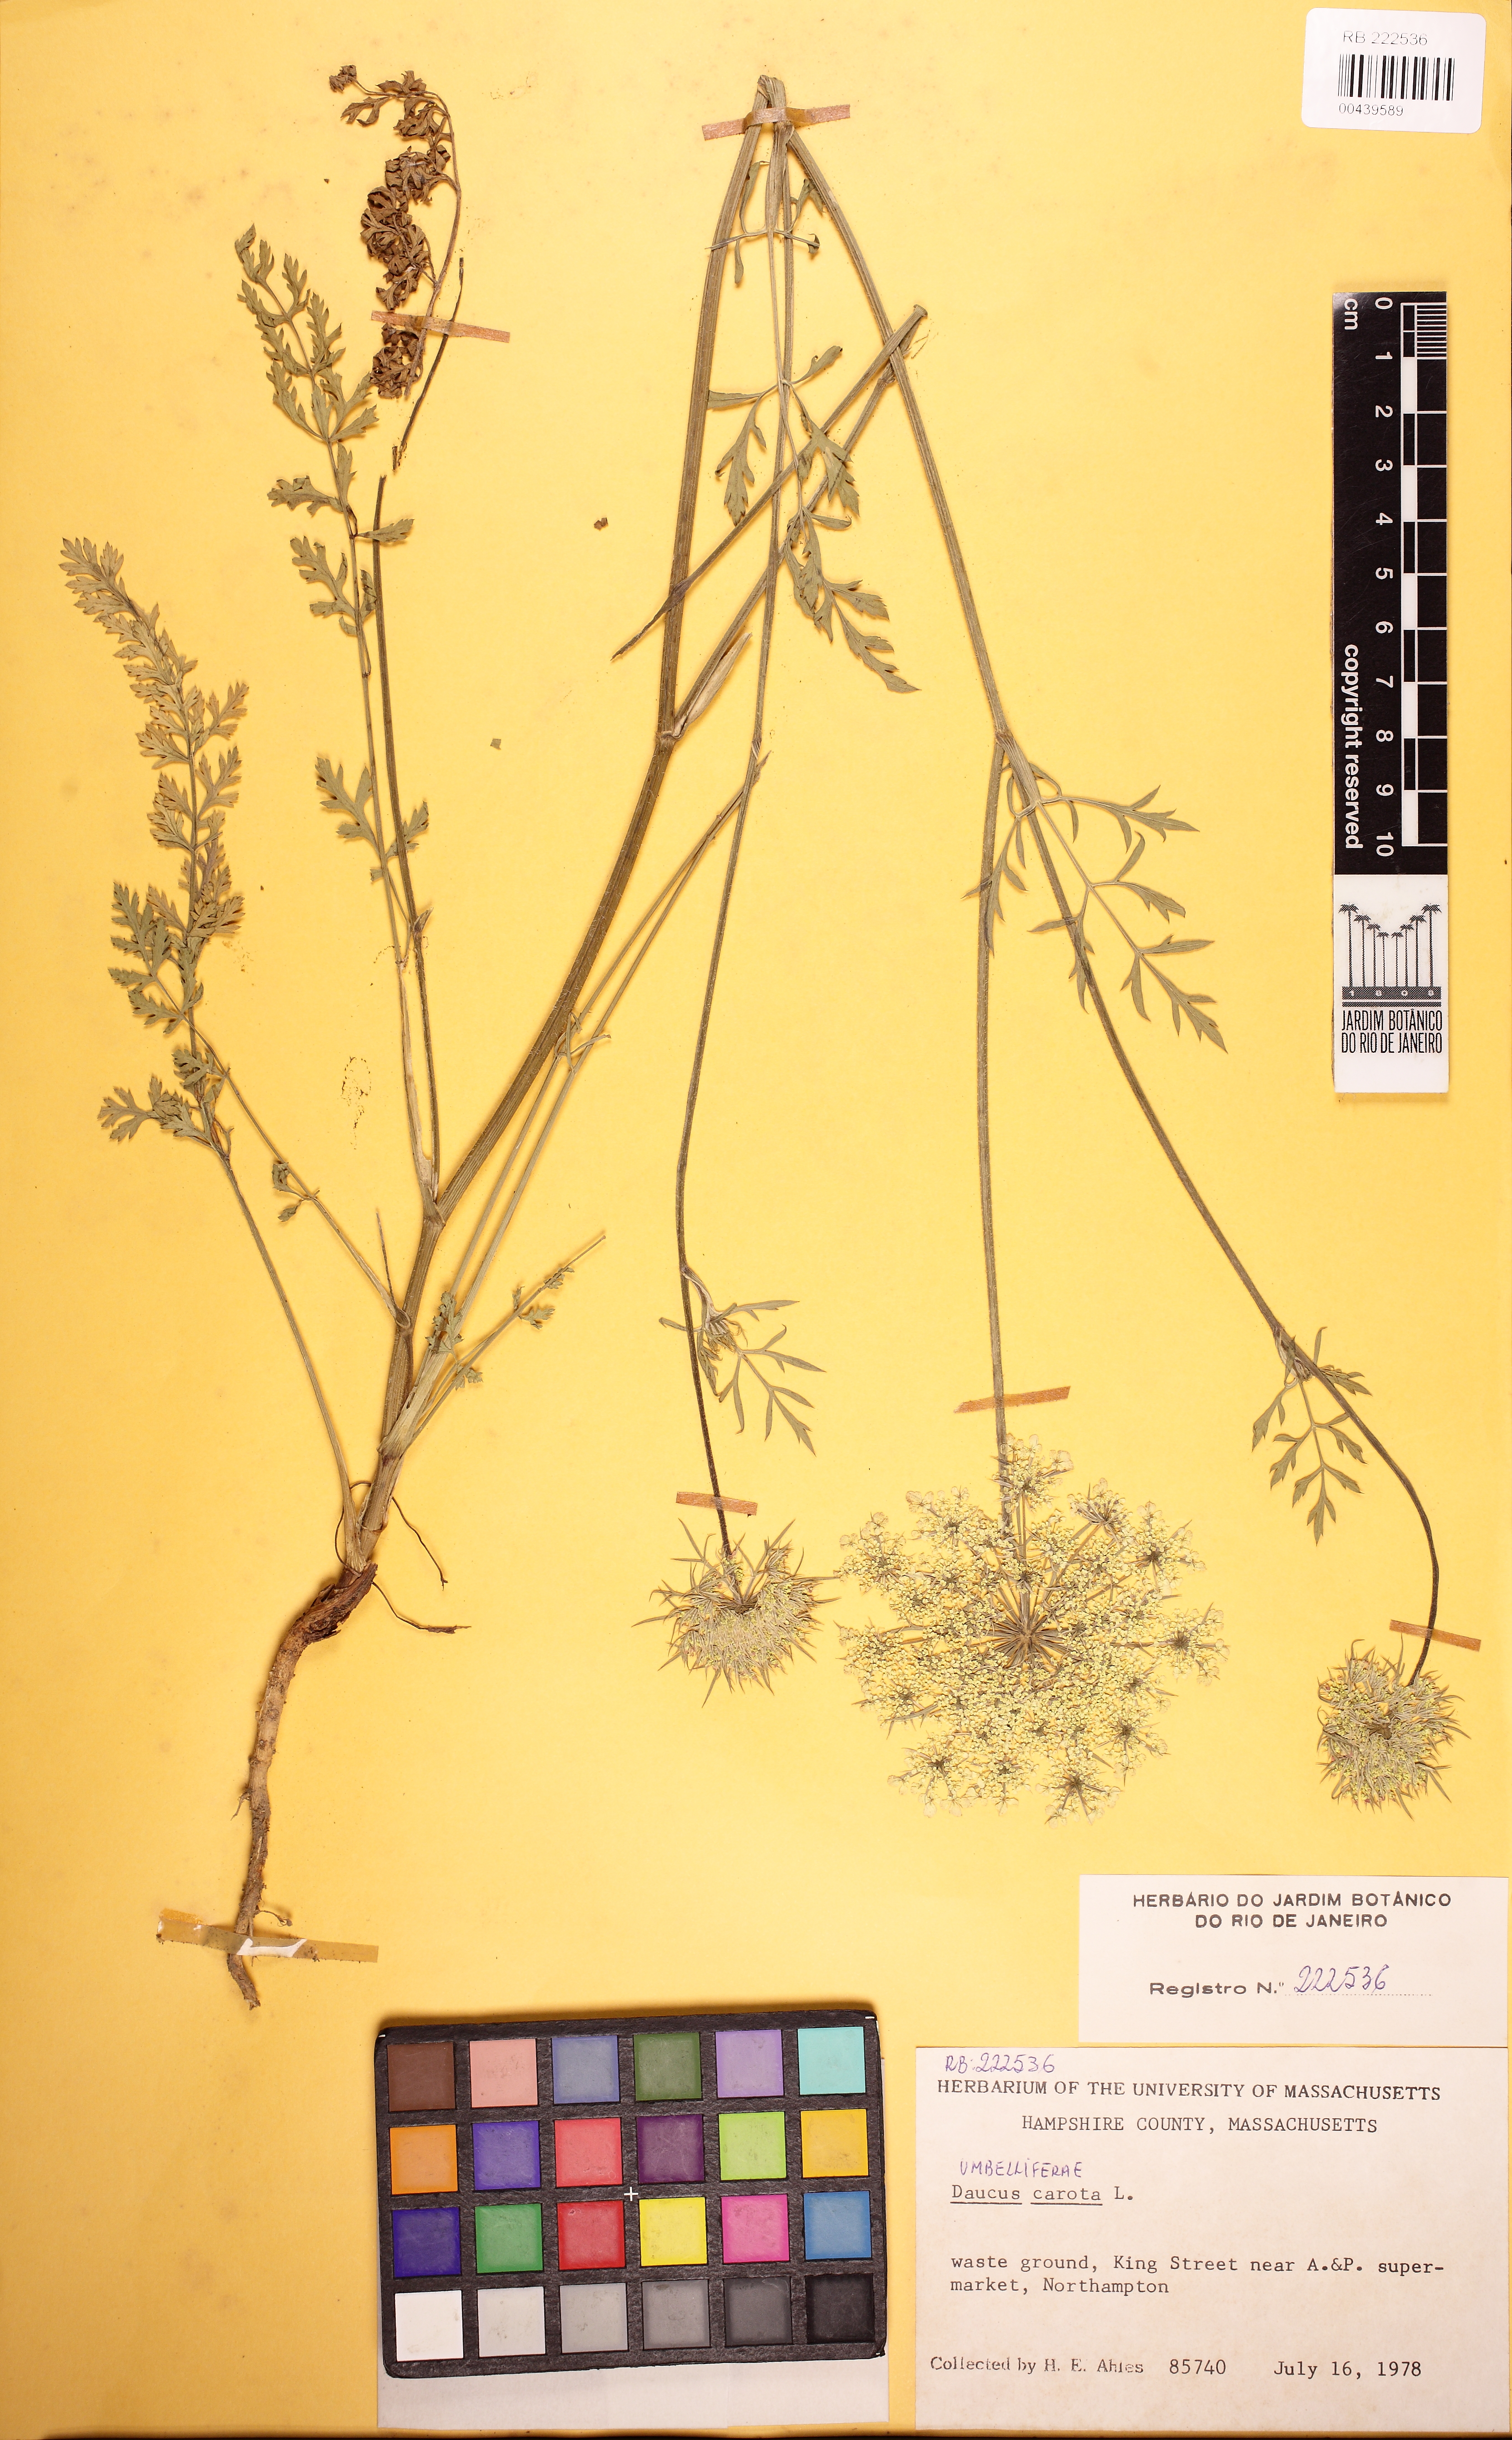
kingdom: Plantae
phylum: Tracheophyta
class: Magnoliopsida
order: Apiales
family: Apiaceae
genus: Daucus
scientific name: Daucus carota
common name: Wild carrot
